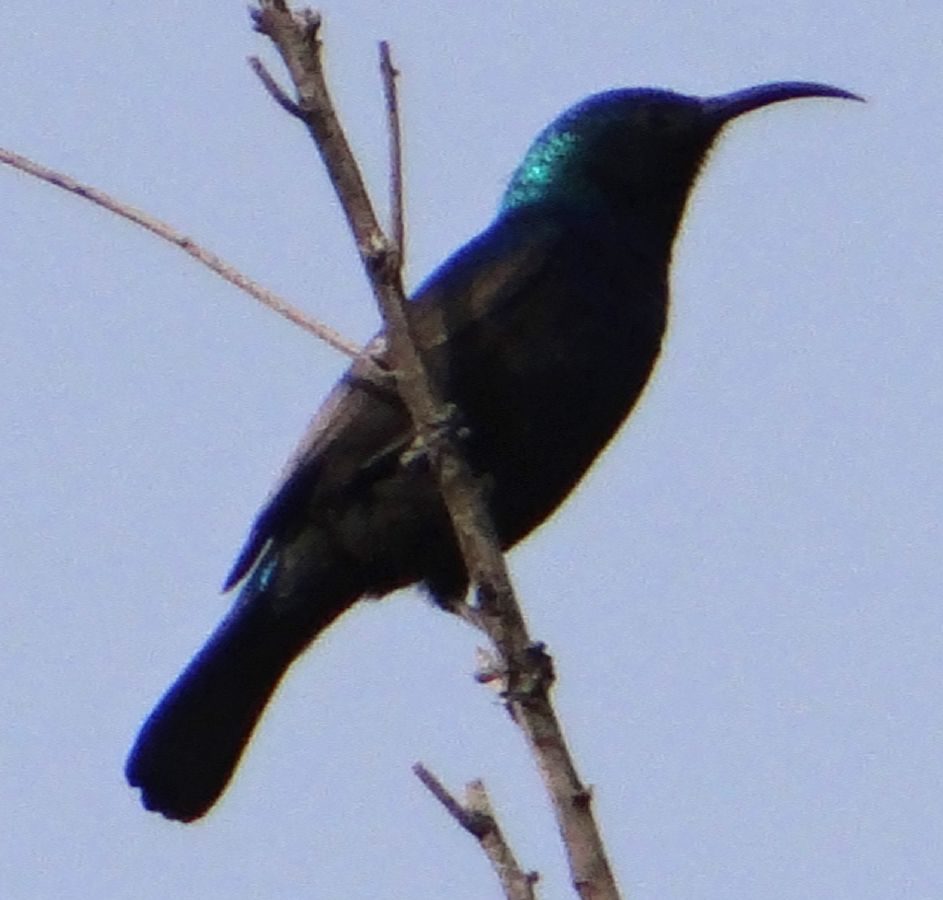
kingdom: Animalia
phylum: Chordata
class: Aves
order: Passeriformes
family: Nectariniidae
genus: Cinnyris
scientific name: Cinnyris osea
